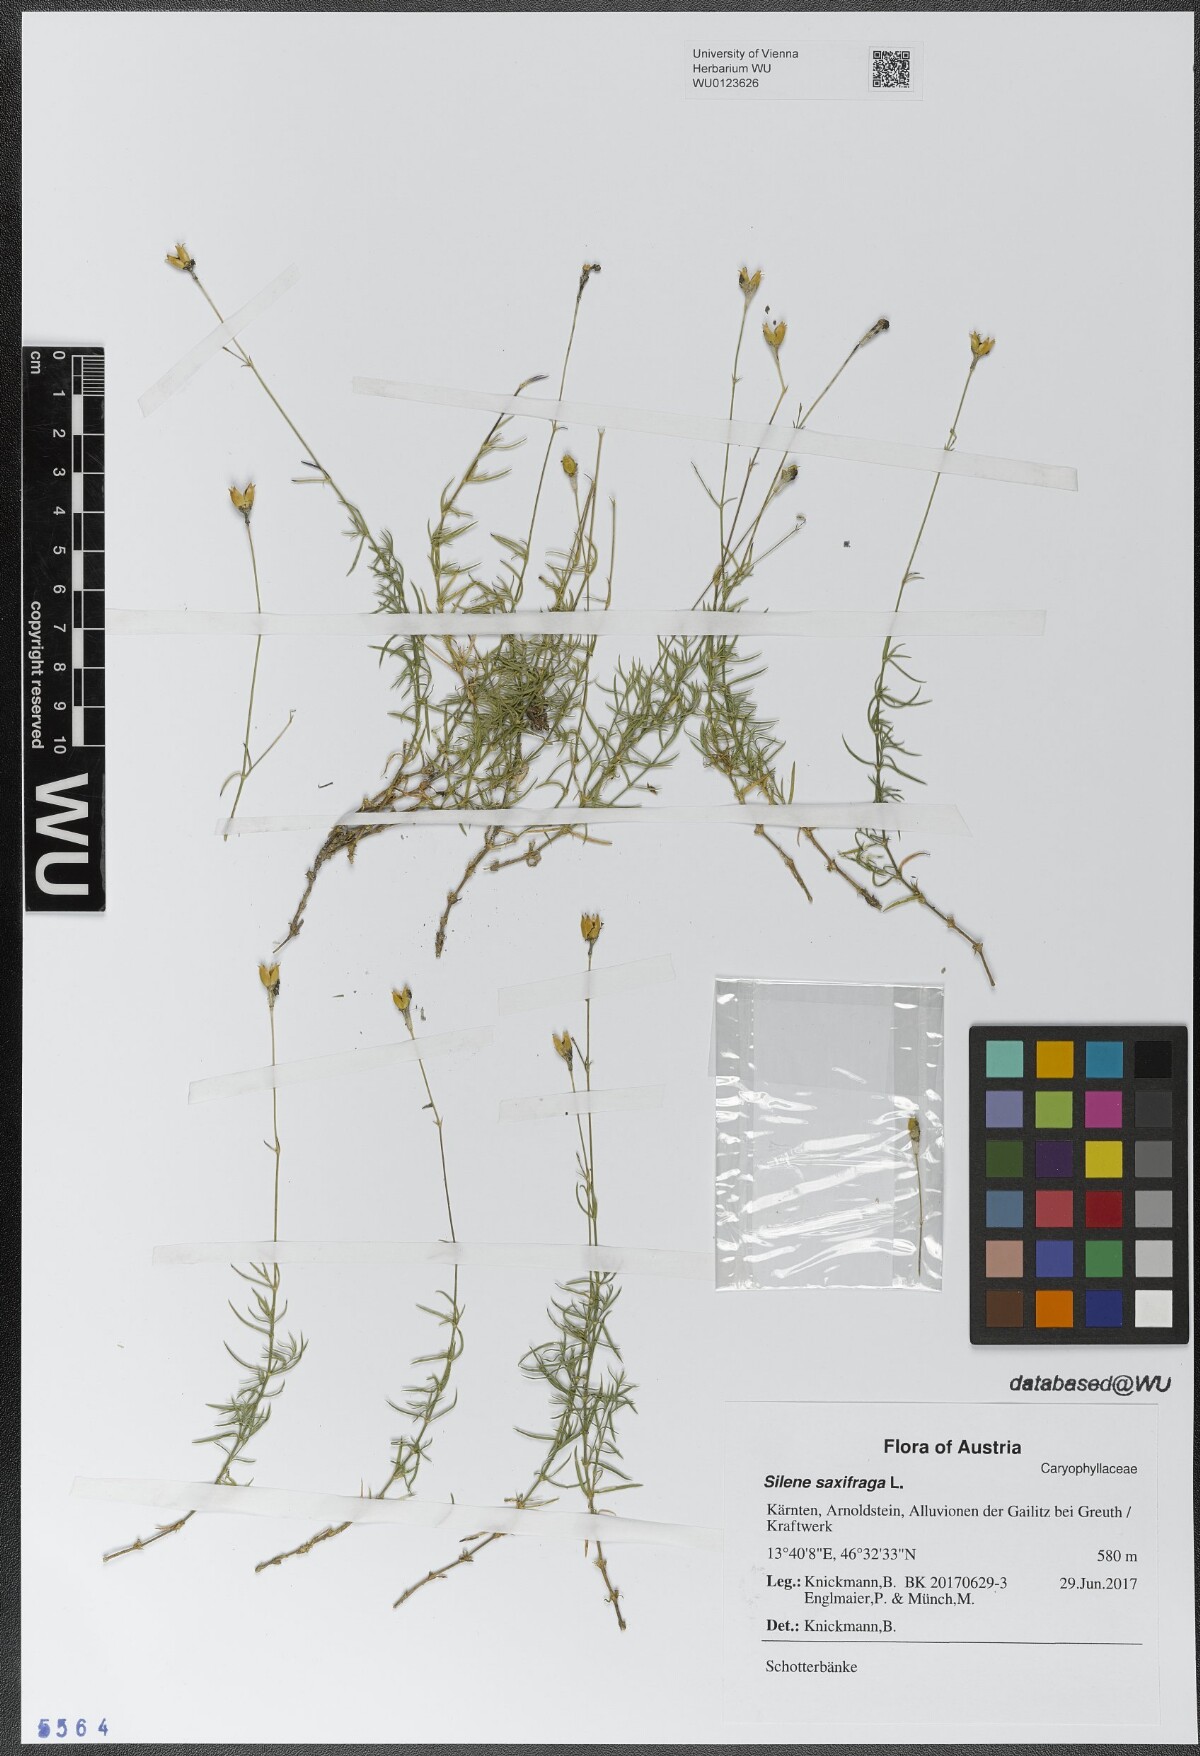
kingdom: Plantae
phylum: Tracheophyta
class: Magnoliopsida
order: Caryophyllales
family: Caryophyllaceae
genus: Silene
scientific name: Silene saxifraga
